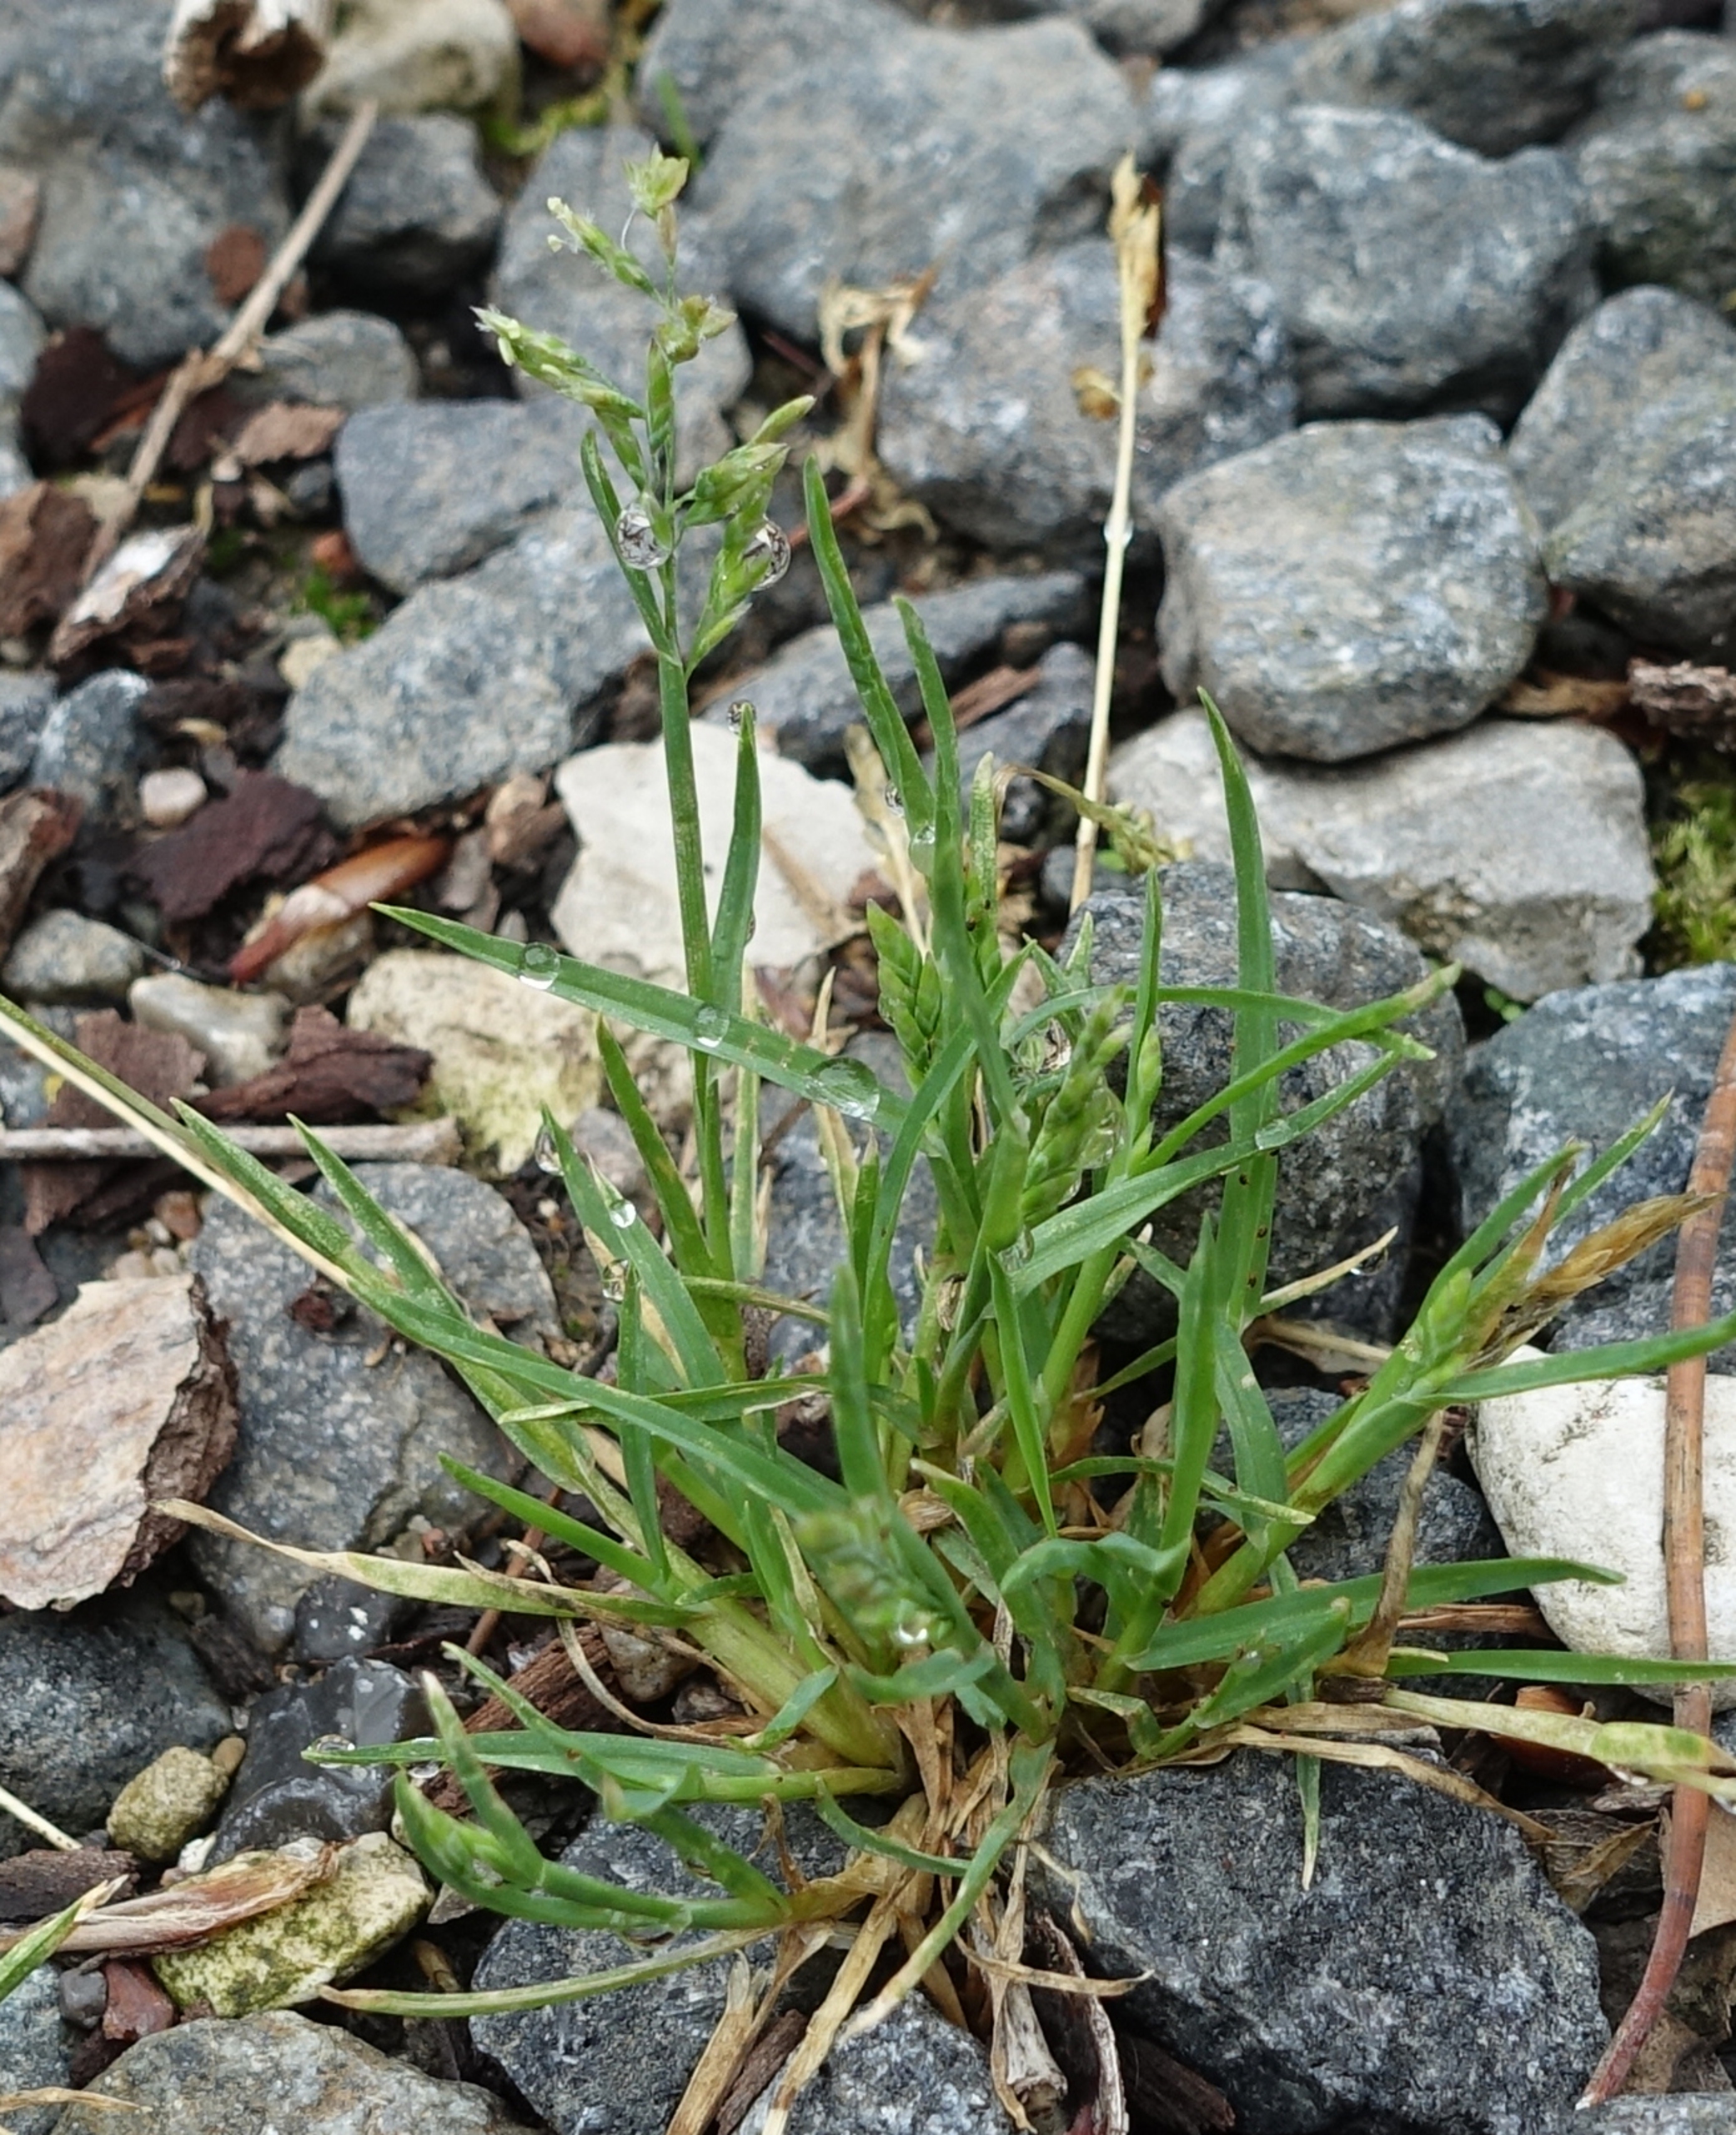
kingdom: Plantae
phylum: Tracheophyta
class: Liliopsida
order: Poales
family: Poaceae
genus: Poa
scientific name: Poa annua
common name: Enårig rapgræs
